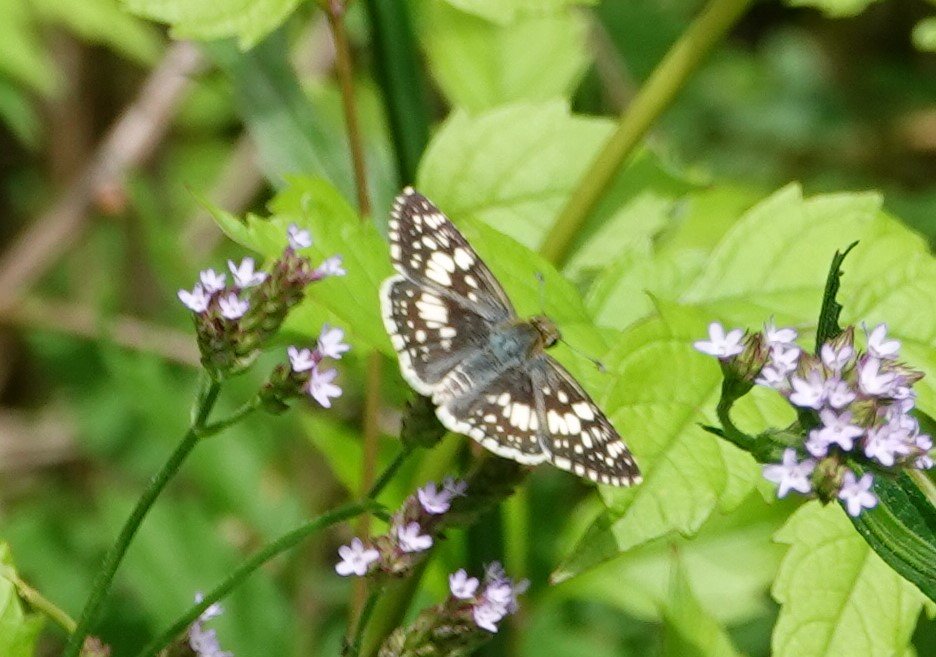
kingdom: Animalia
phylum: Arthropoda
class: Insecta
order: Lepidoptera
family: Hesperiidae
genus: Pyrgus
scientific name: Pyrgus communis
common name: White Checkered-Skipper
